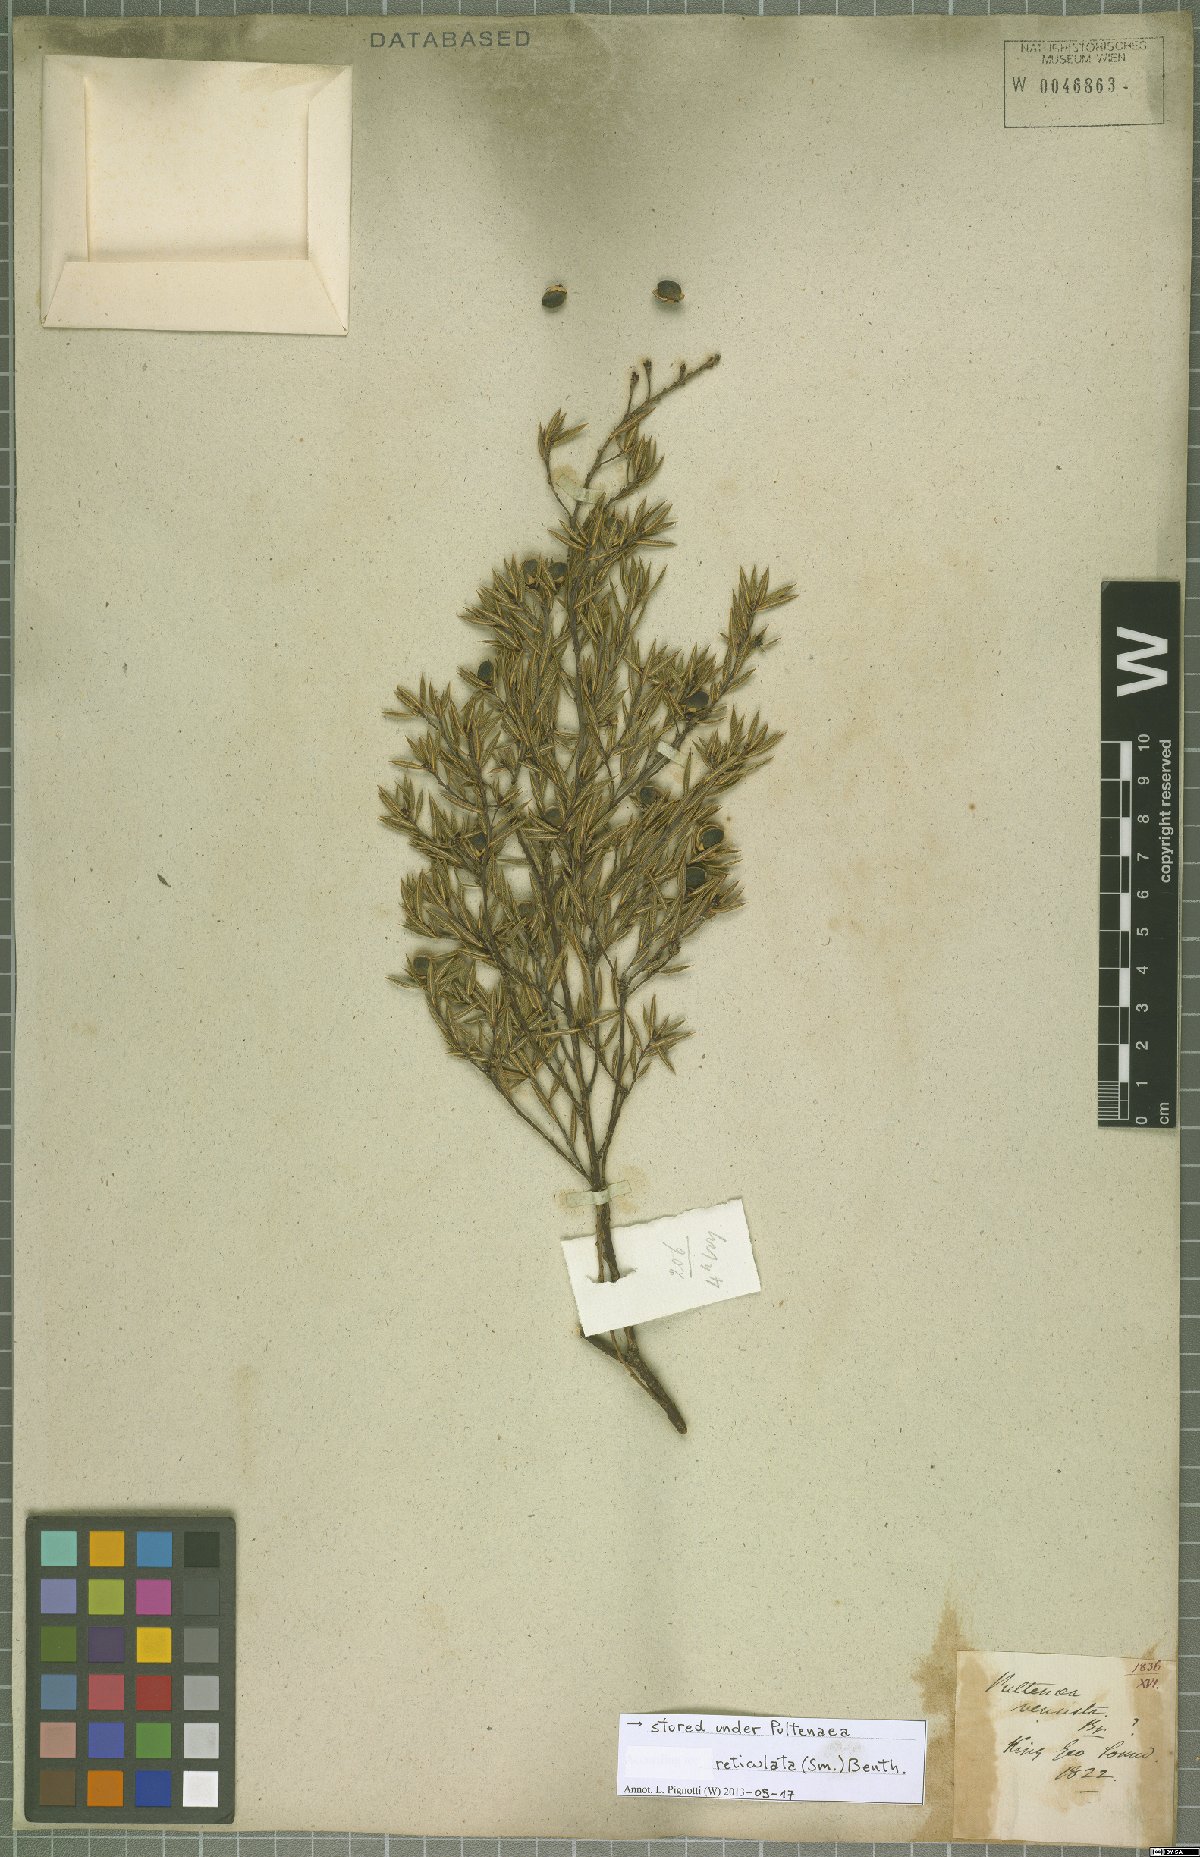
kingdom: Plantae
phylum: Tracheophyta
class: Magnoliopsida
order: Fabales
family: Fabaceae
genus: Pultenaea
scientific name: Pultenaea reticulata
